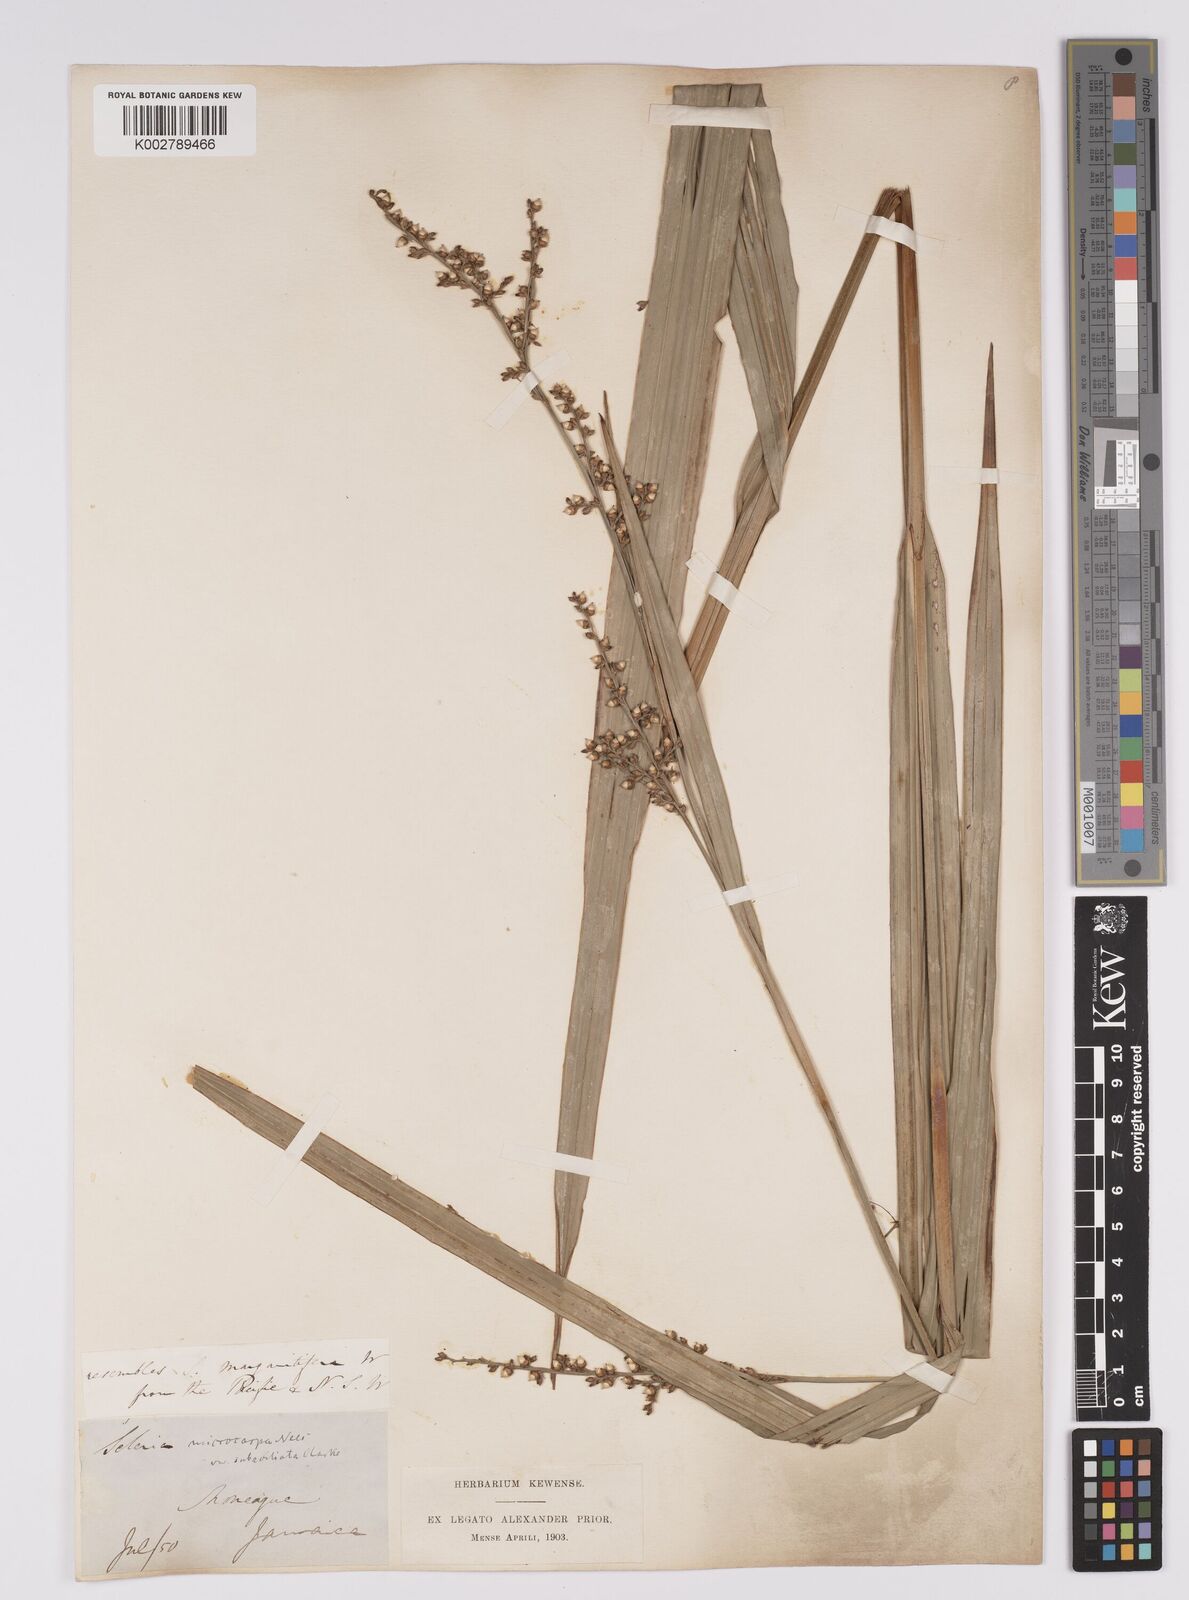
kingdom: Plantae
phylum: Tracheophyta
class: Liliopsida
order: Poales
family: Cyperaceae
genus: Scleria
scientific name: Scleria mucronata
